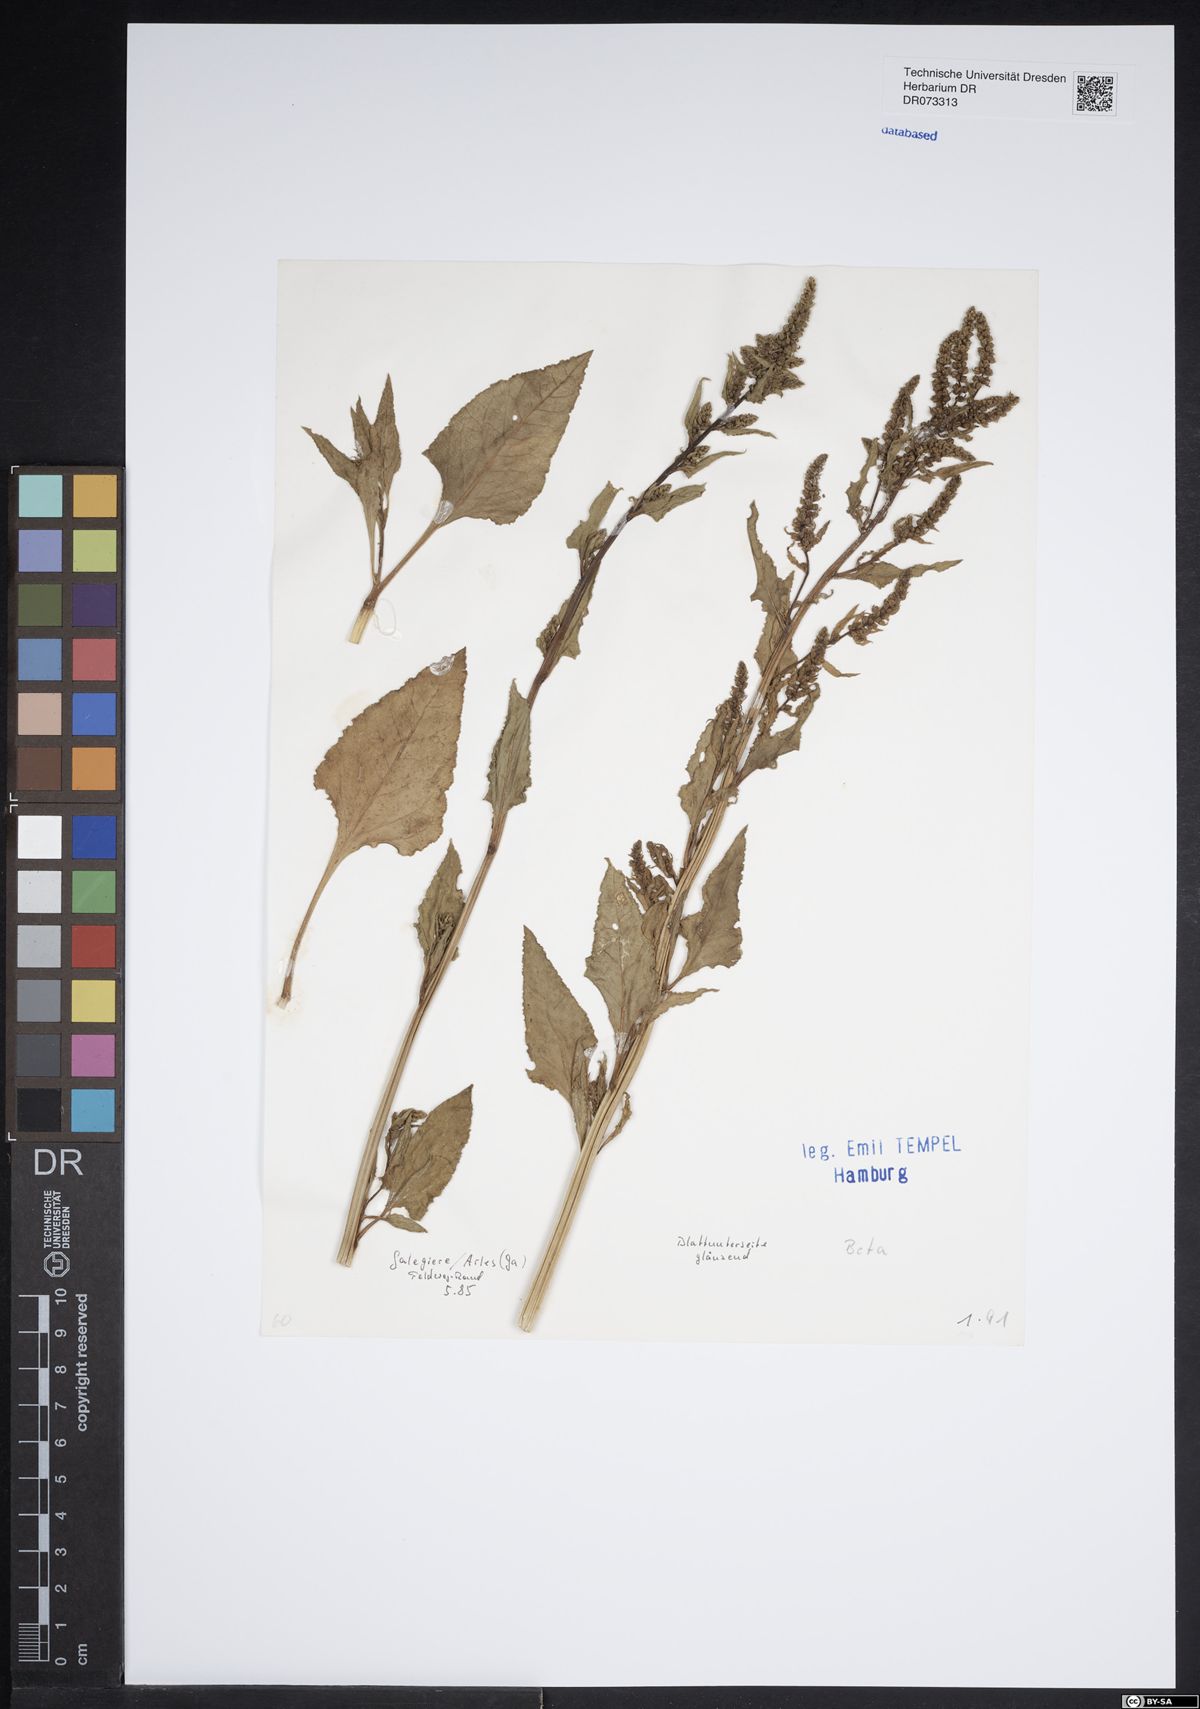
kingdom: Plantae
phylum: Tracheophyta
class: Magnoliopsida
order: Caryophyllales
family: Amaranthaceae
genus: Beta
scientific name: Beta
